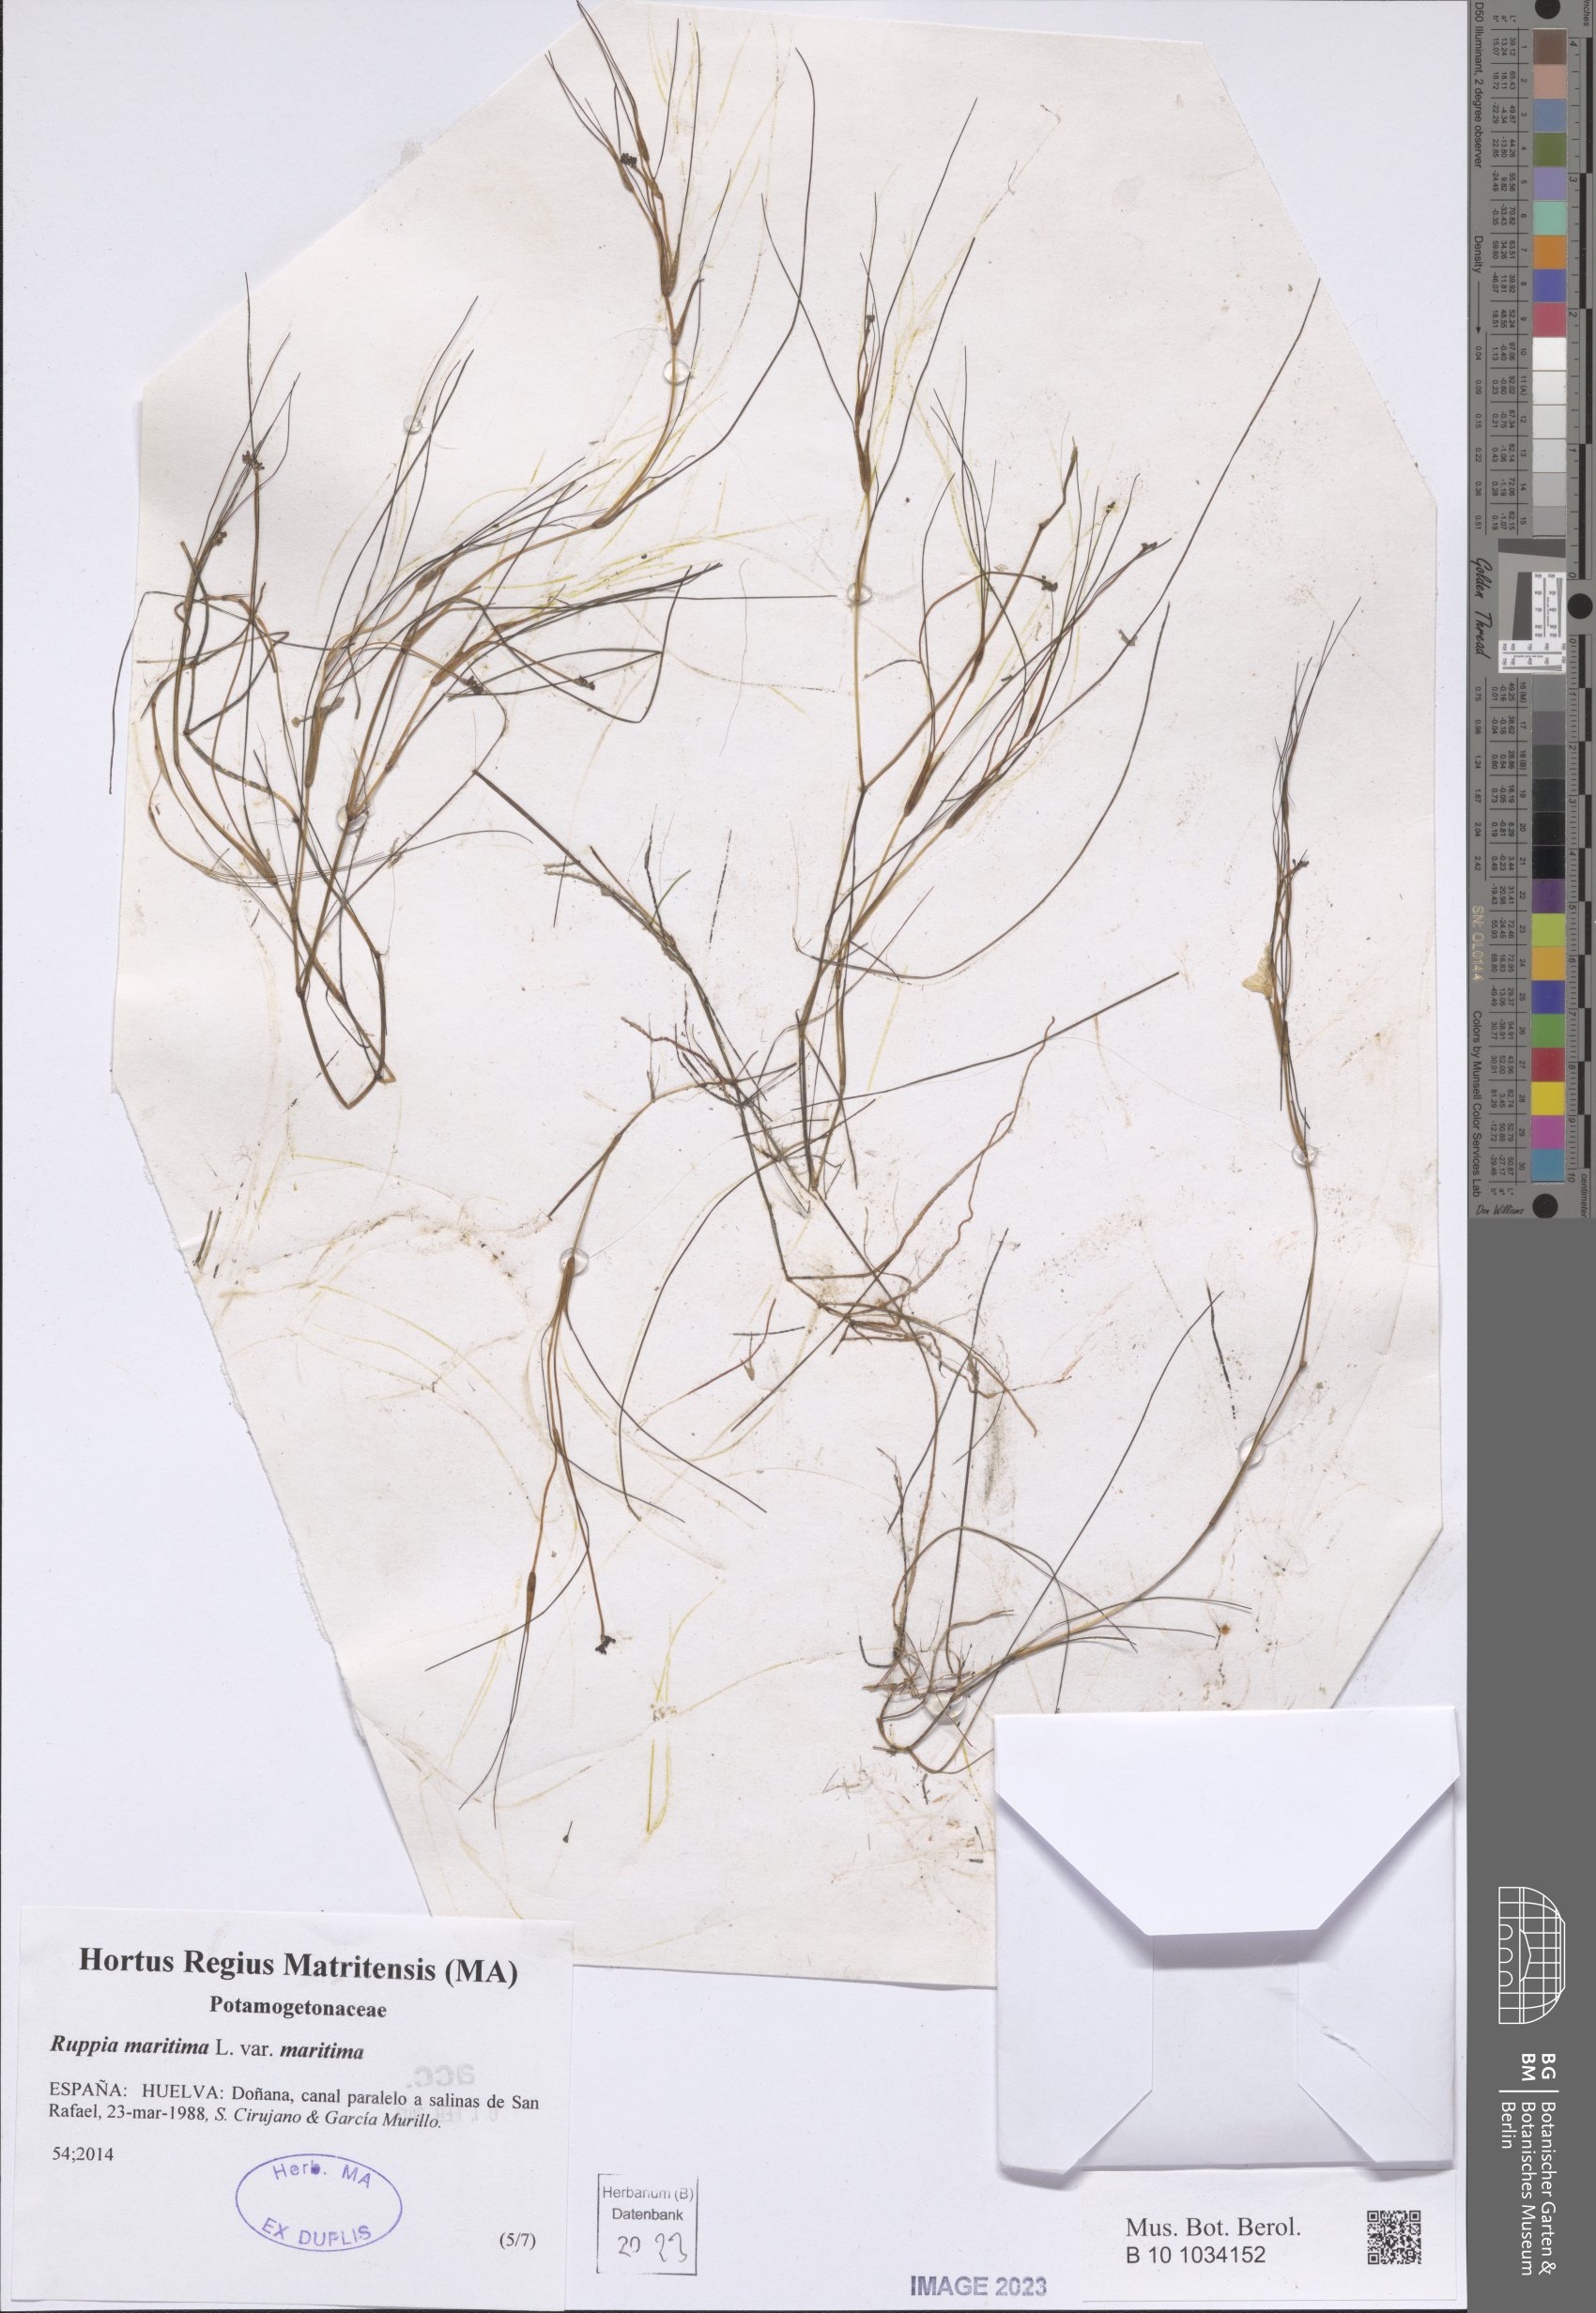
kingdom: Plantae
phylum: Tracheophyta
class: Liliopsida
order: Alismatales
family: Ruppiaceae
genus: Ruppia
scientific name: Ruppia maritima
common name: Beaked tasselweed
